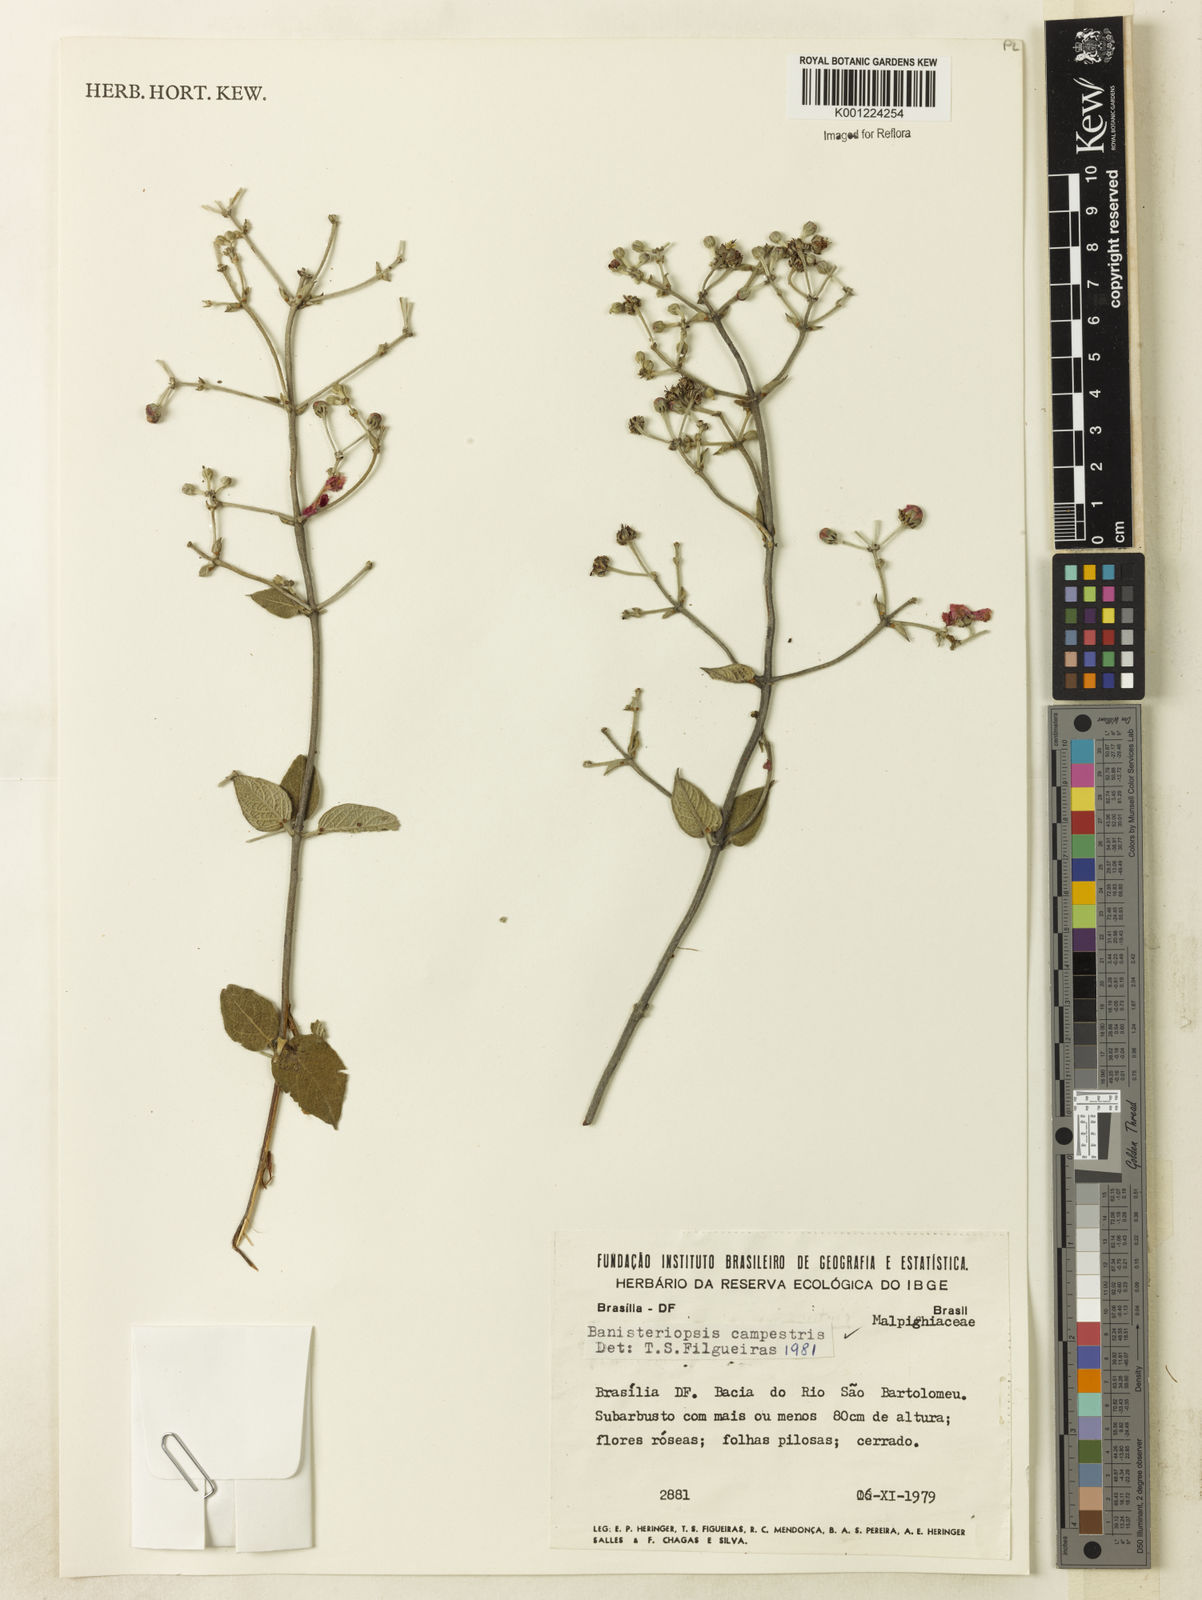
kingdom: Plantae
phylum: Tracheophyta
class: Magnoliopsida
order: Malpighiales
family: Malpighiaceae
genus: Banisteriopsis
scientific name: Banisteriopsis campestris
